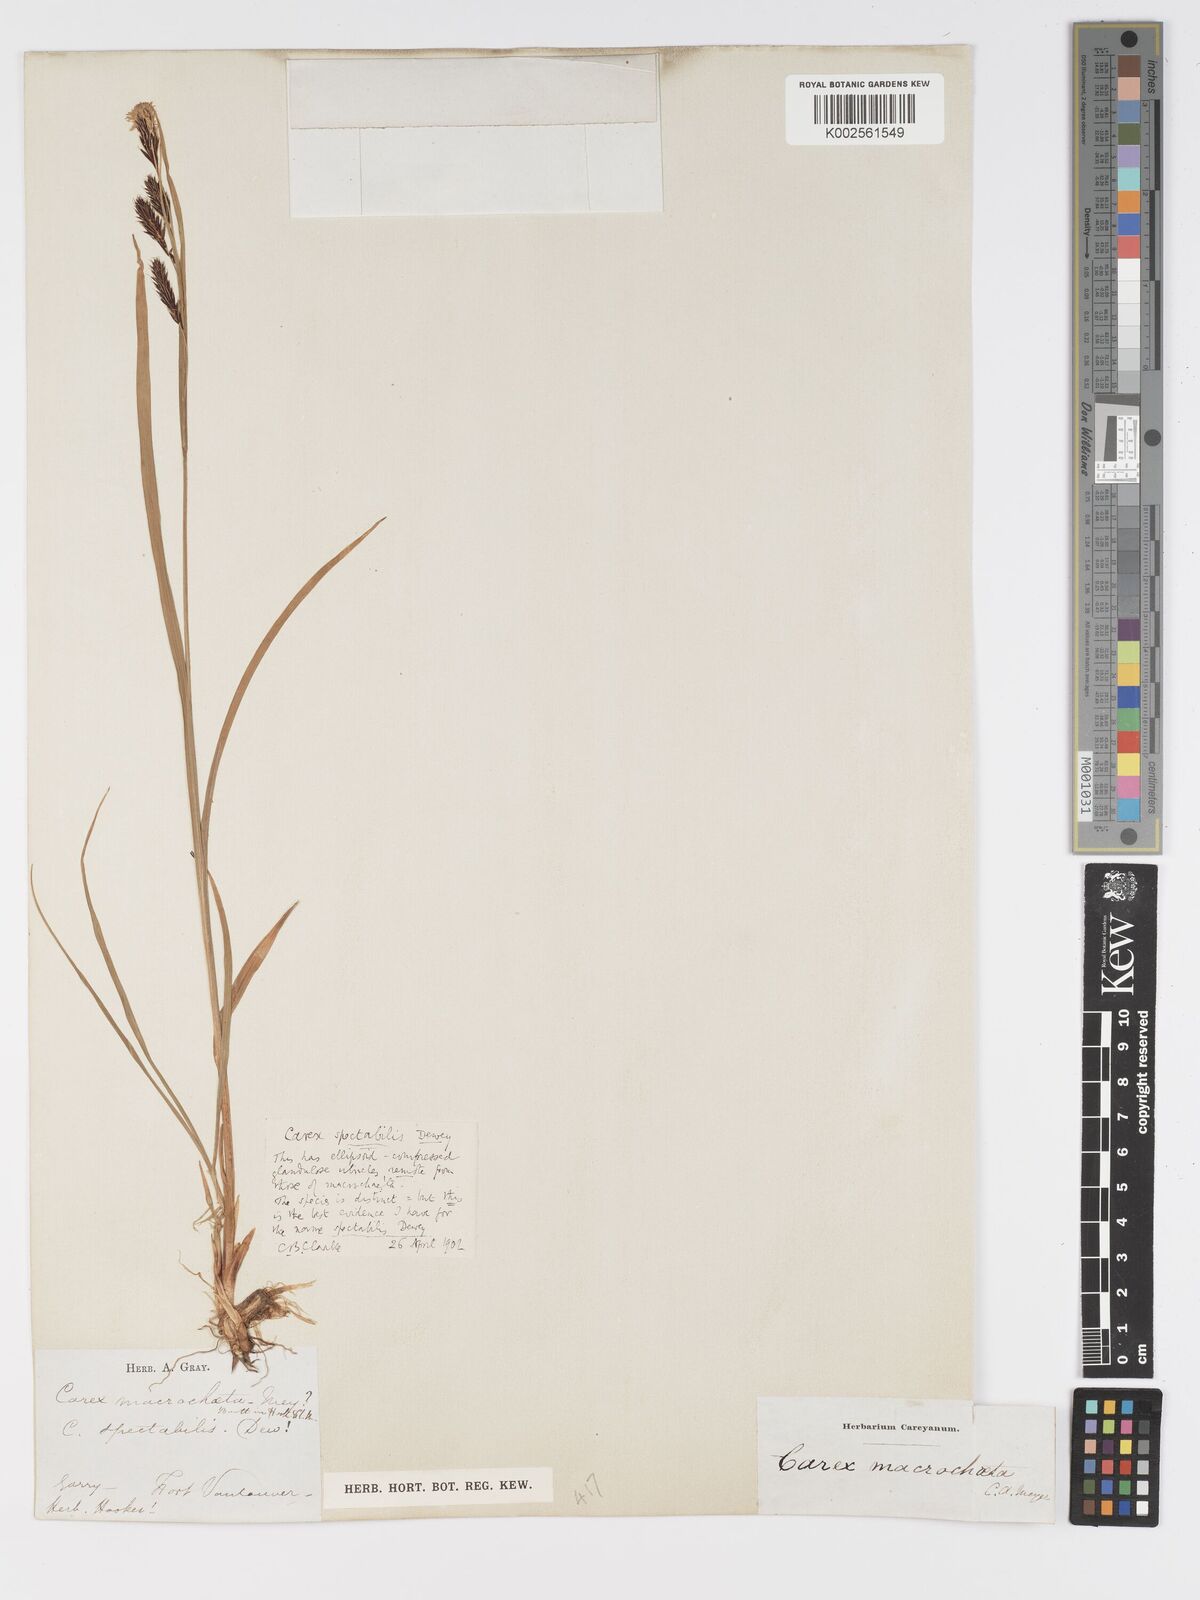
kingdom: Plantae
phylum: Tracheophyta
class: Liliopsida
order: Poales
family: Cyperaceae
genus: Carex
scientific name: Carex spectabilis
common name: Northwestern showy sedge
